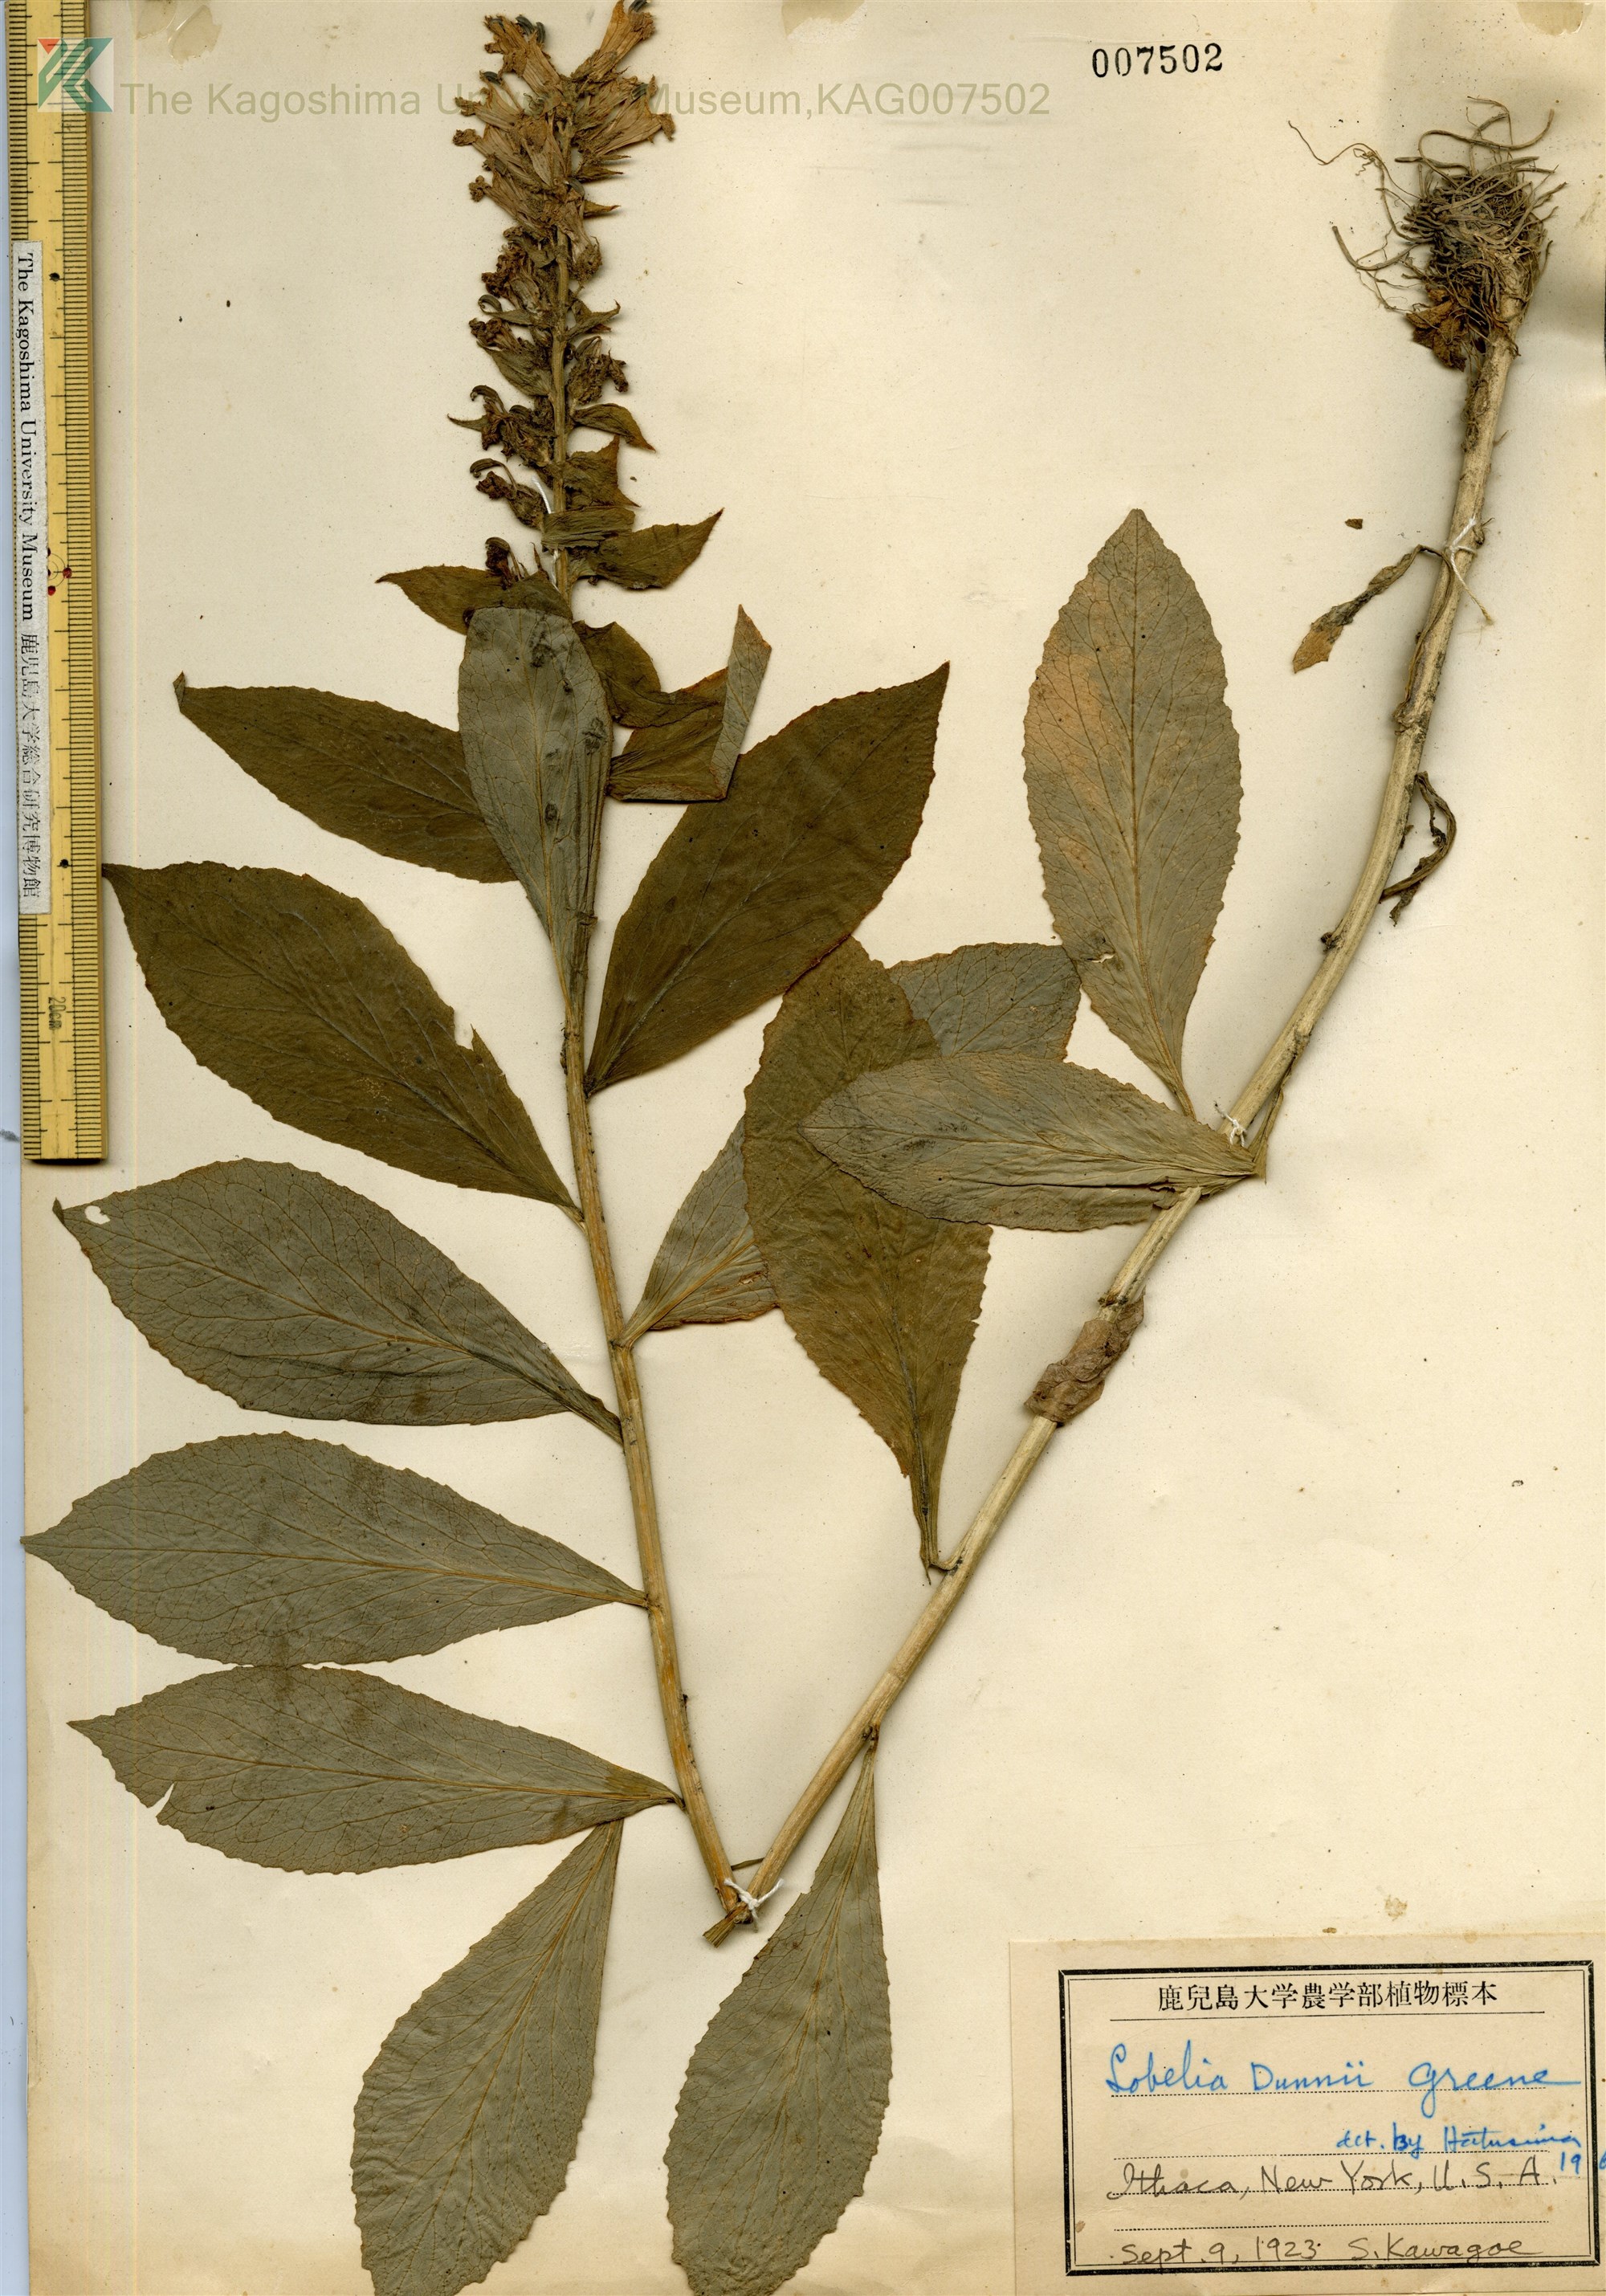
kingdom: Plantae
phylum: Tracheophyta
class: Magnoliopsida
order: Asterales
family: Campanulaceae
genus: Palmerella
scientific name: Palmerella debilis
